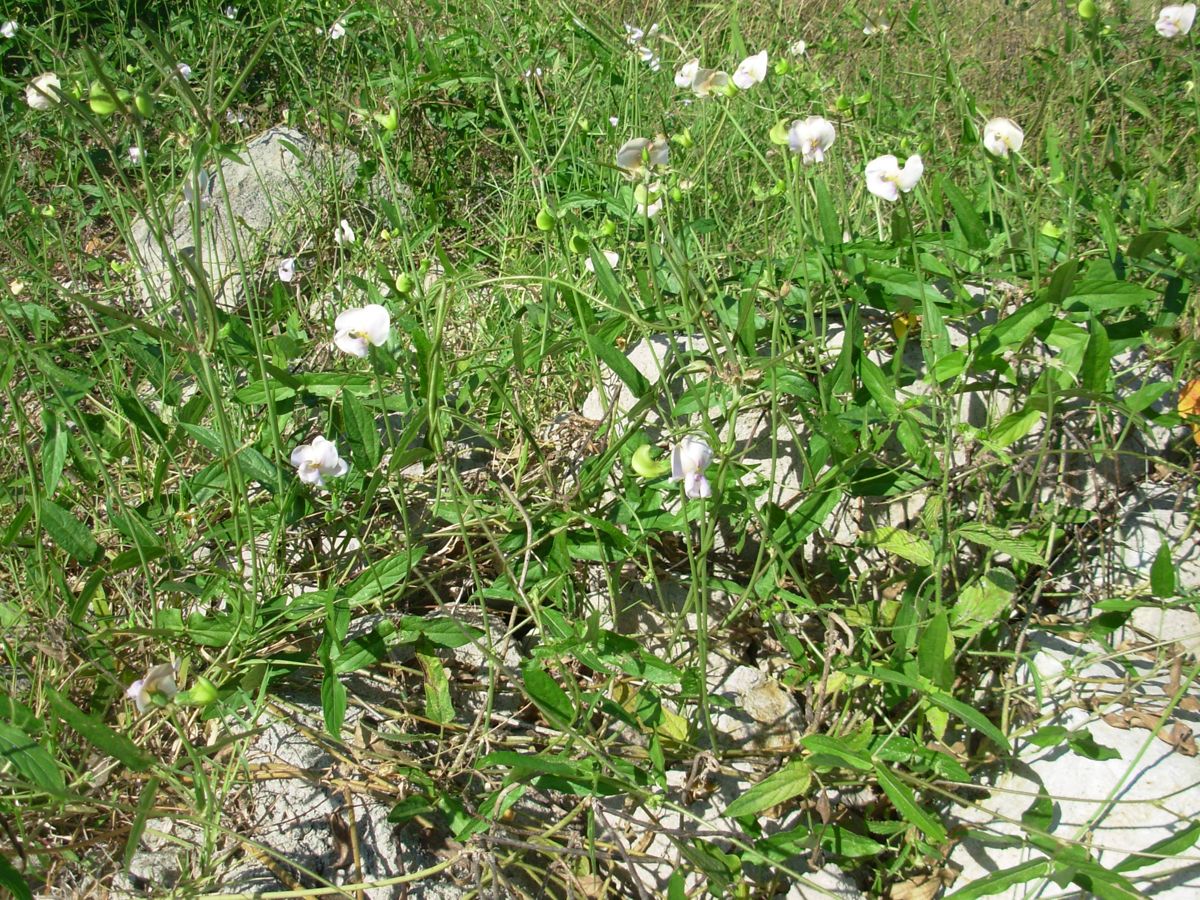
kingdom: Plantae
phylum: Tracheophyta
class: Magnoliopsida
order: Fabales
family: Fabaceae
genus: Vigna
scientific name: Vigna vexillata
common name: Zombi pea
